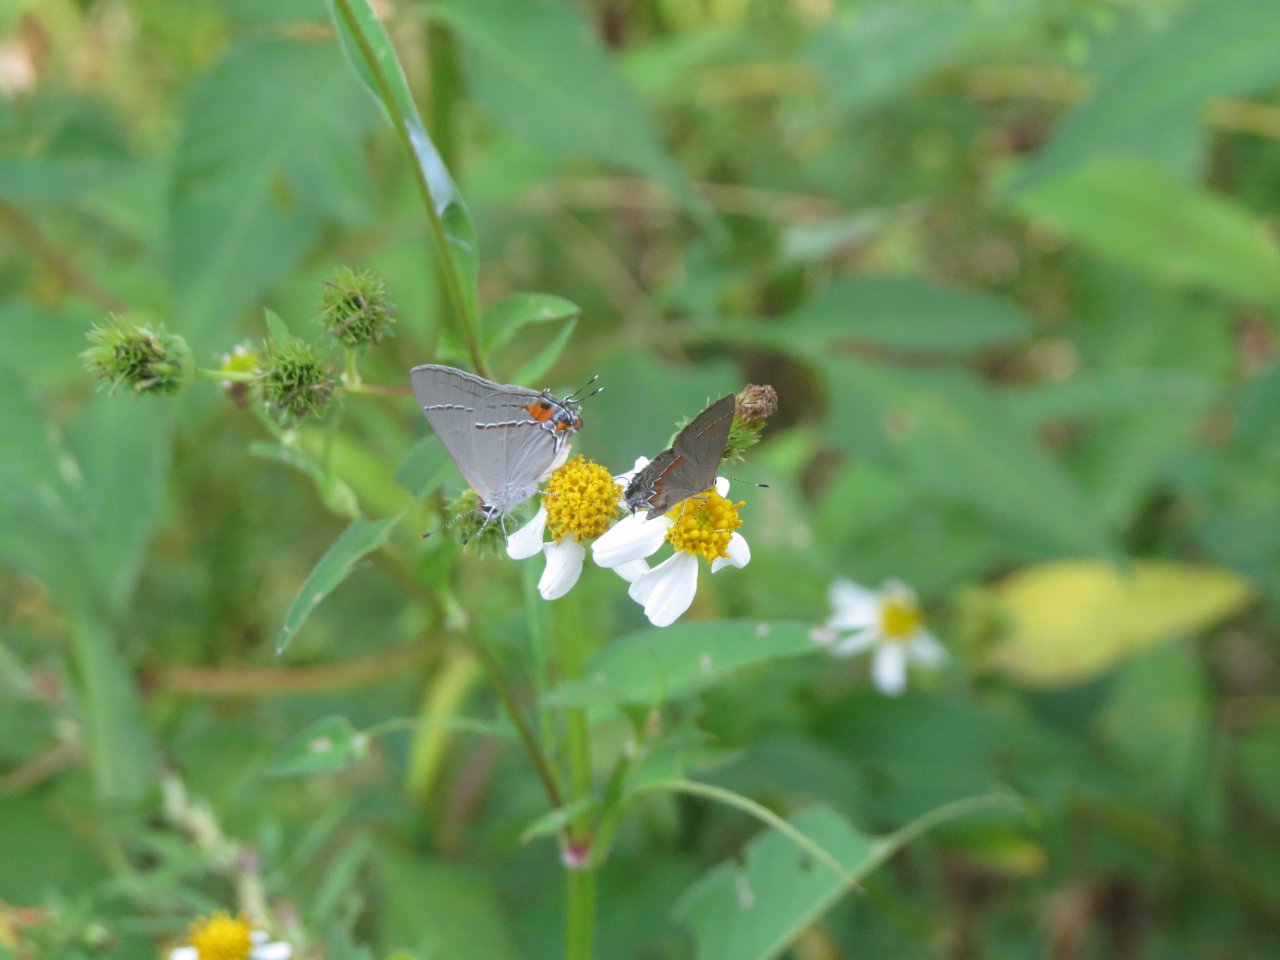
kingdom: Animalia
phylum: Arthropoda
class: Insecta
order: Lepidoptera
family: Lycaenidae
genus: Strymon
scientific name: Strymon melinus
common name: Gray Hairstreak
